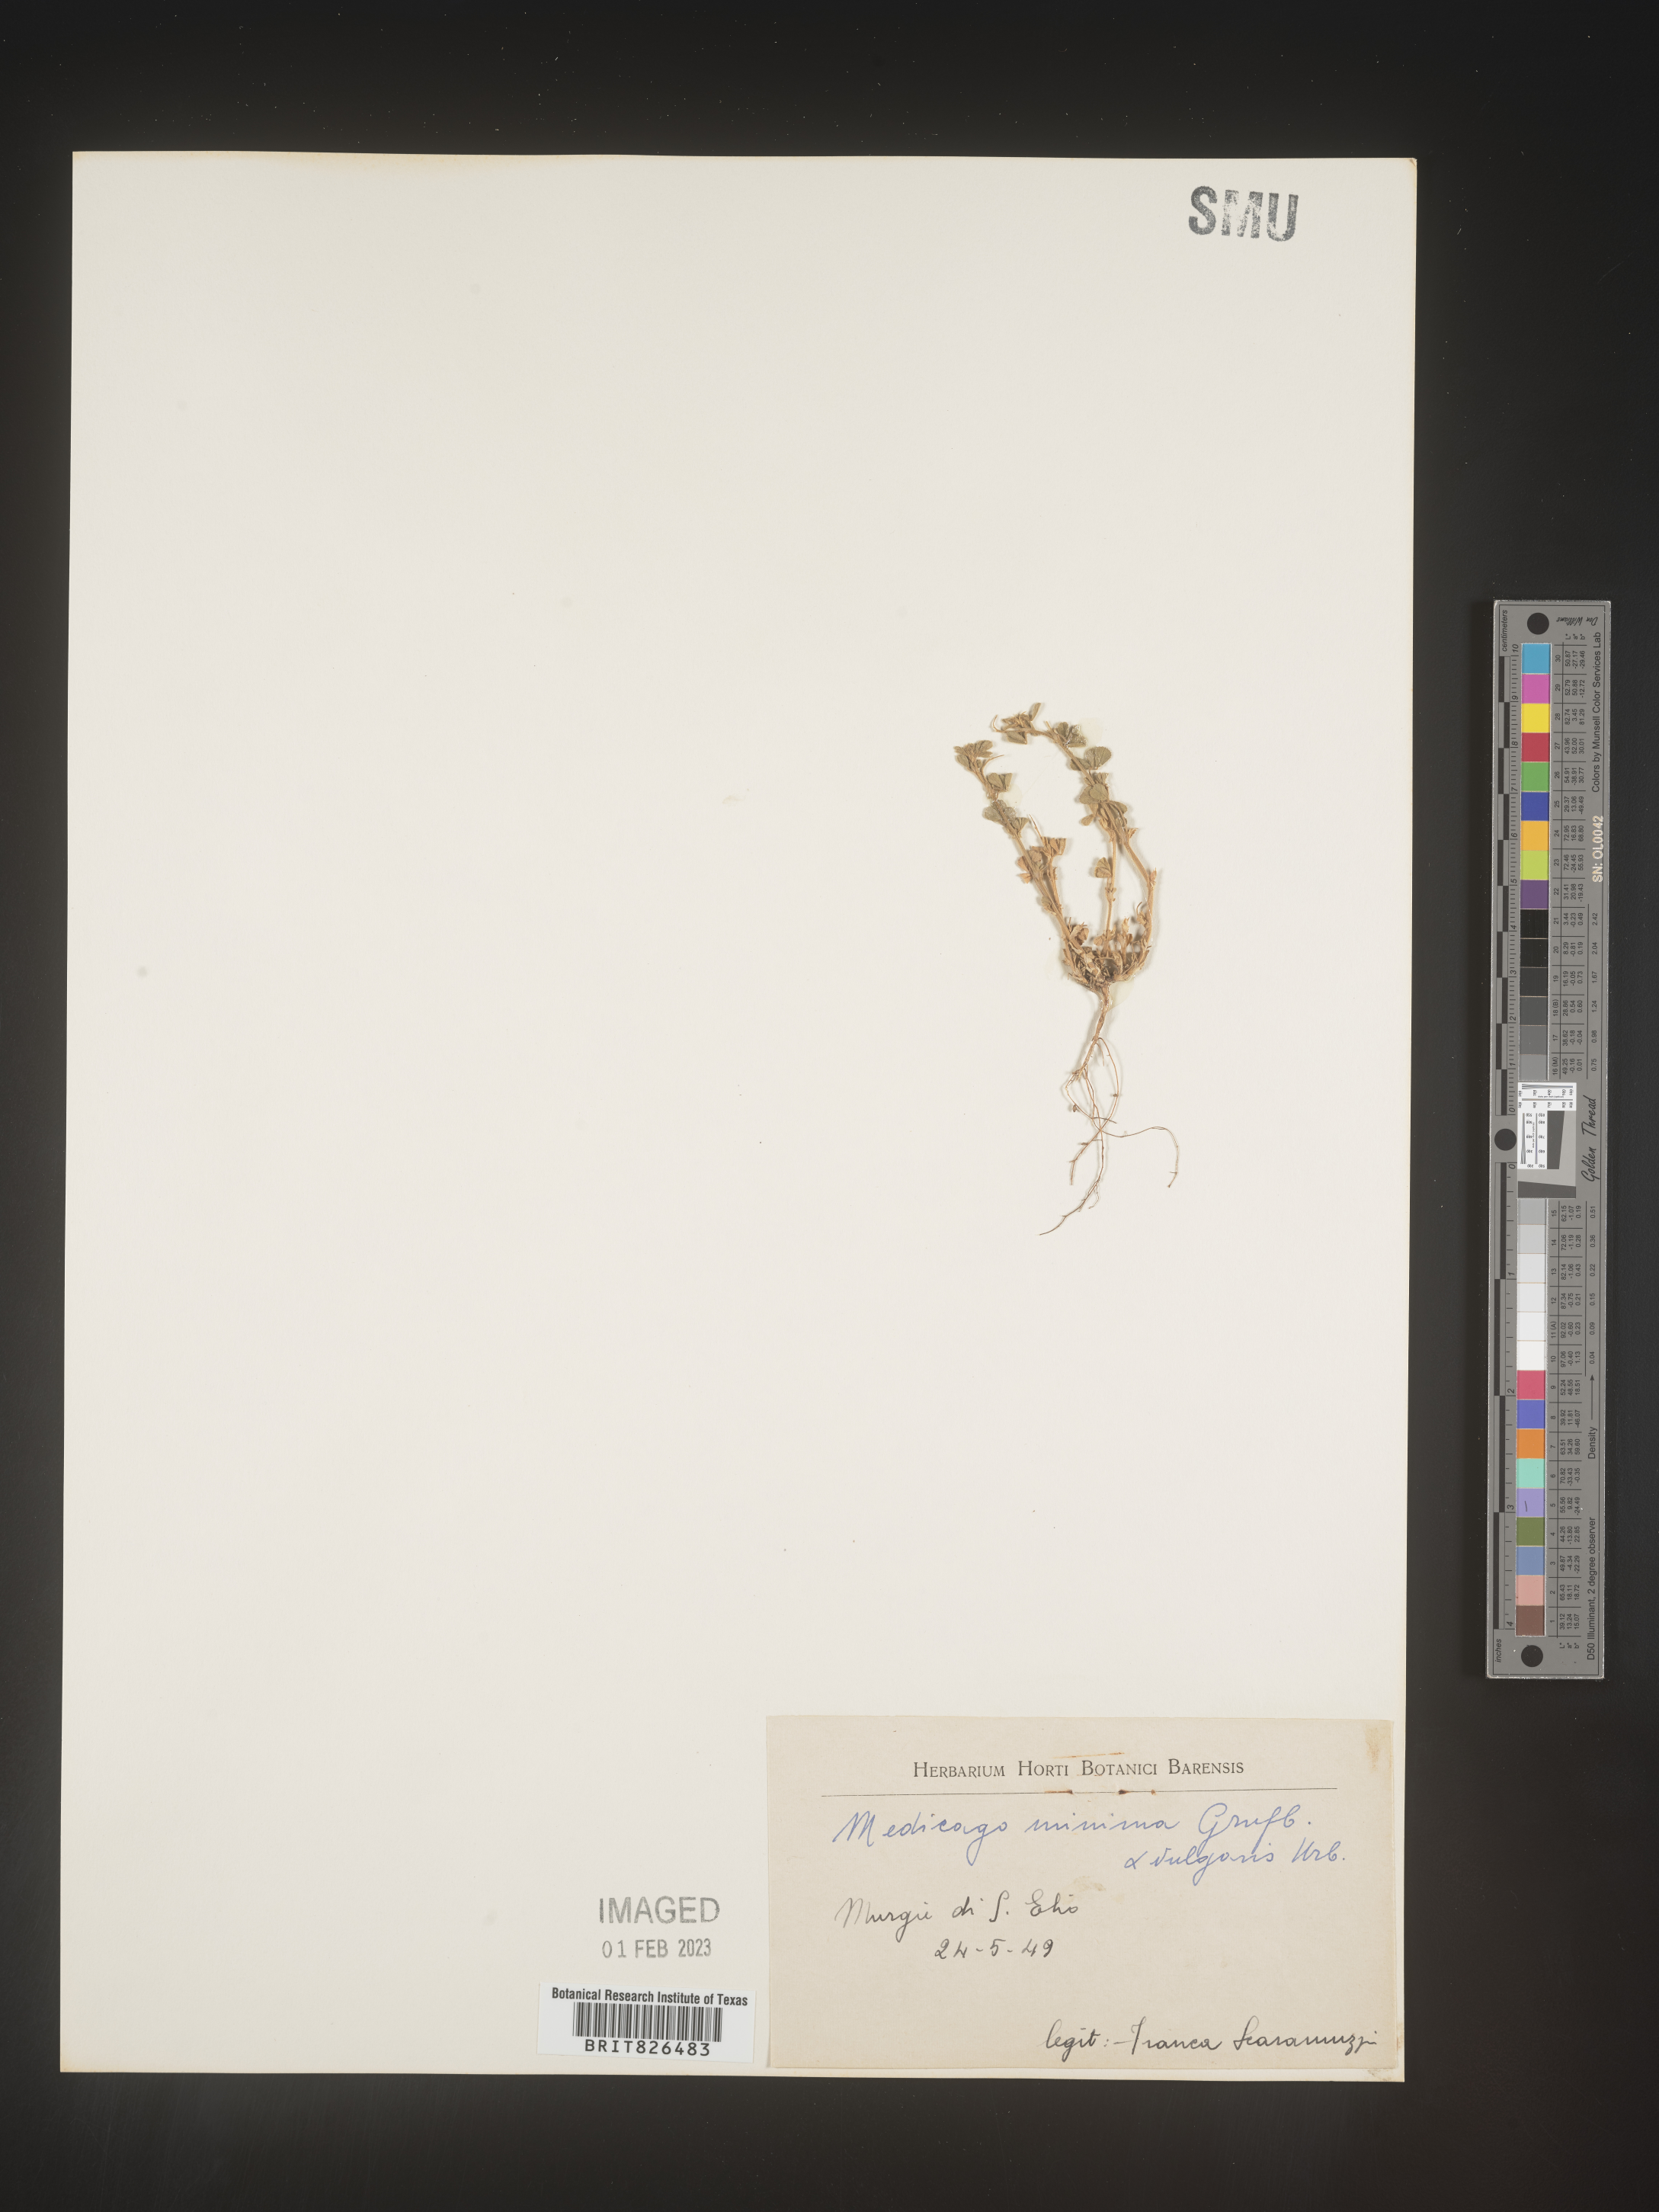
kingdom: Plantae
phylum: Tracheophyta
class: Magnoliopsida
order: Fabales
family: Fabaceae
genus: Medicago
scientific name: Medicago
